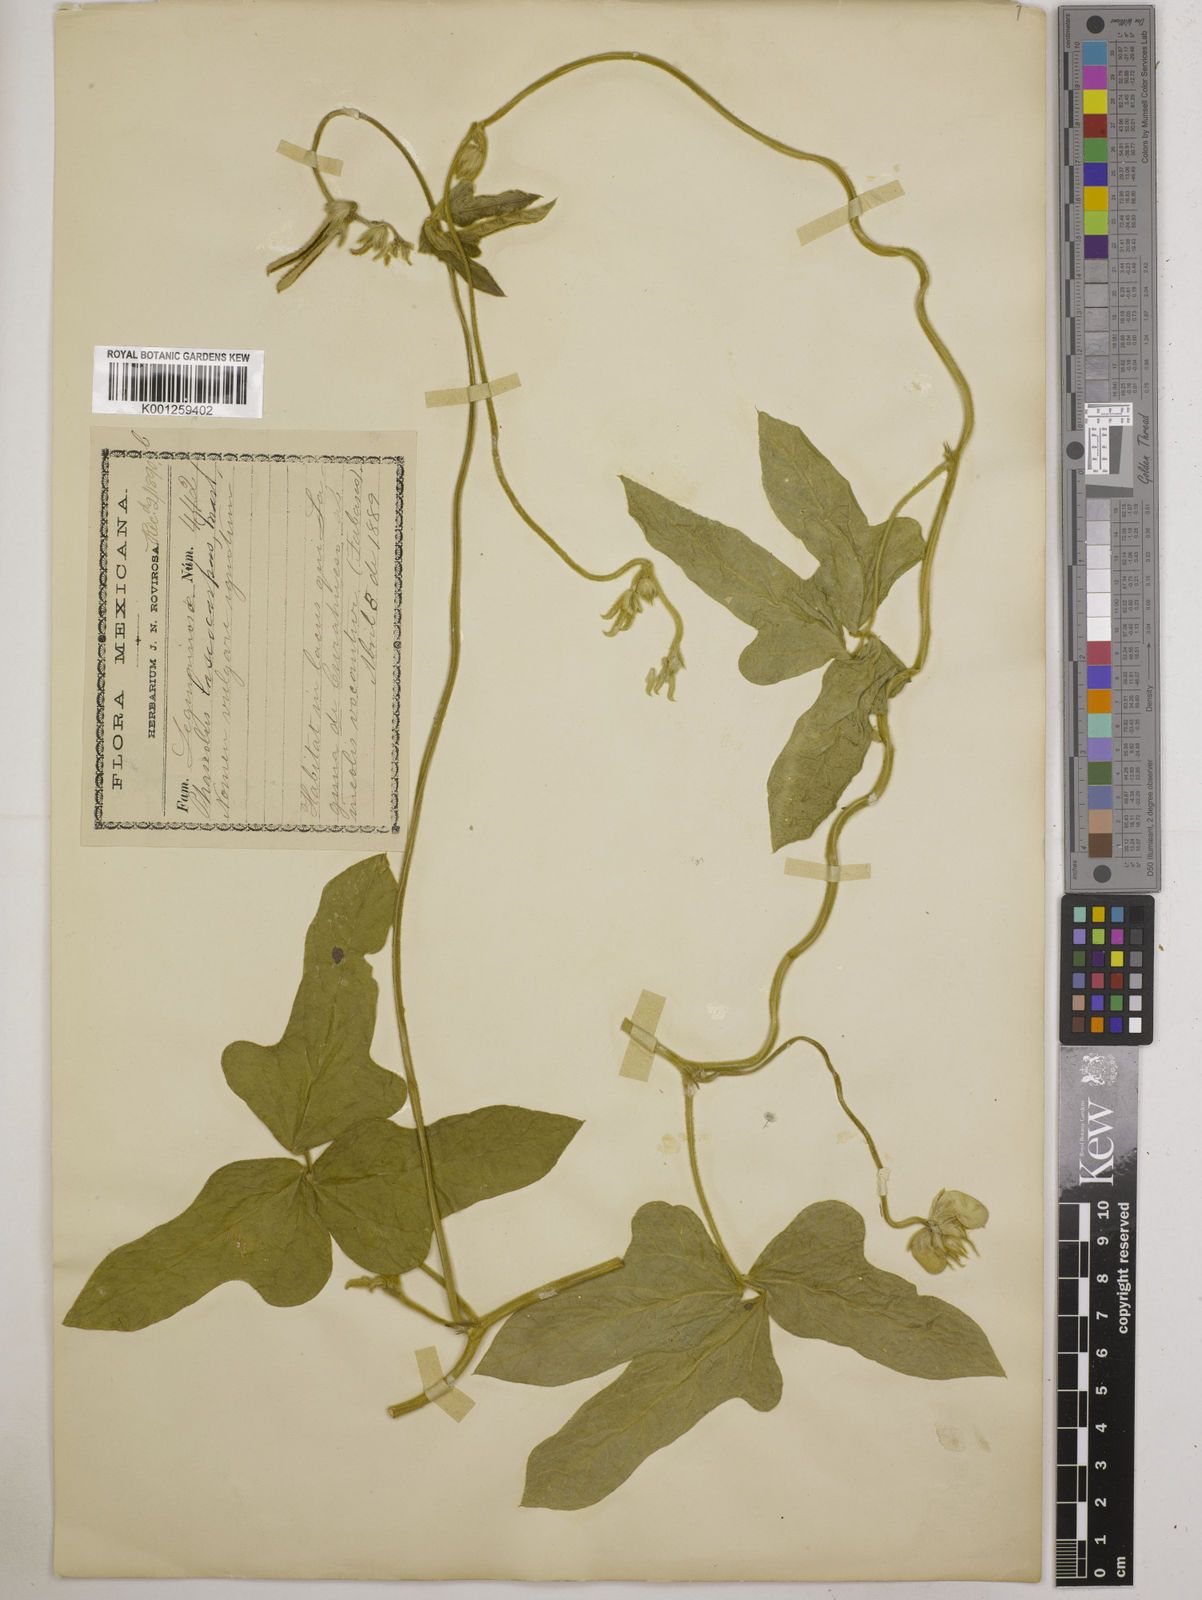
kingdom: Plantae
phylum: Tracheophyta
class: Magnoliopsida
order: Fabales
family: Fabaceae
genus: Vigna
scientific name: Vigna lasiocarpa
